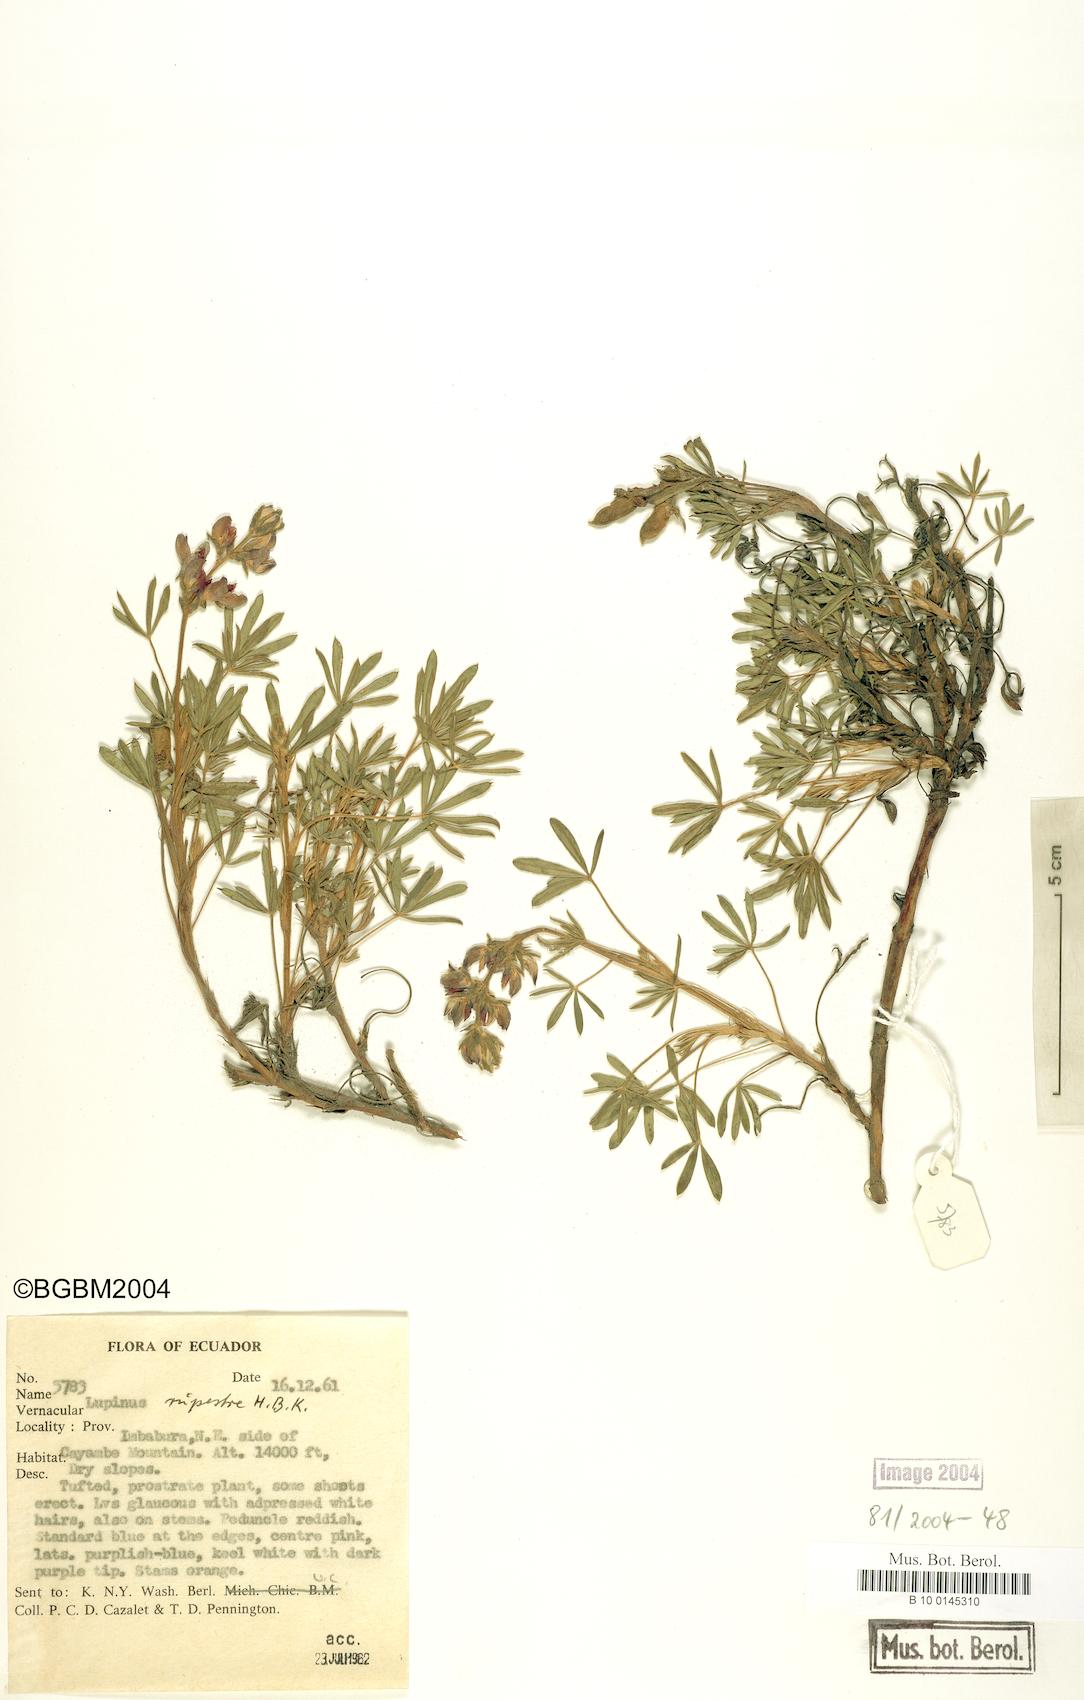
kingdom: Plantae
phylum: Tracheophyta
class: Magnoliopsida
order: Fabales
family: Fabaceae
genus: Lupinus
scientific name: Lupinus rupestris
